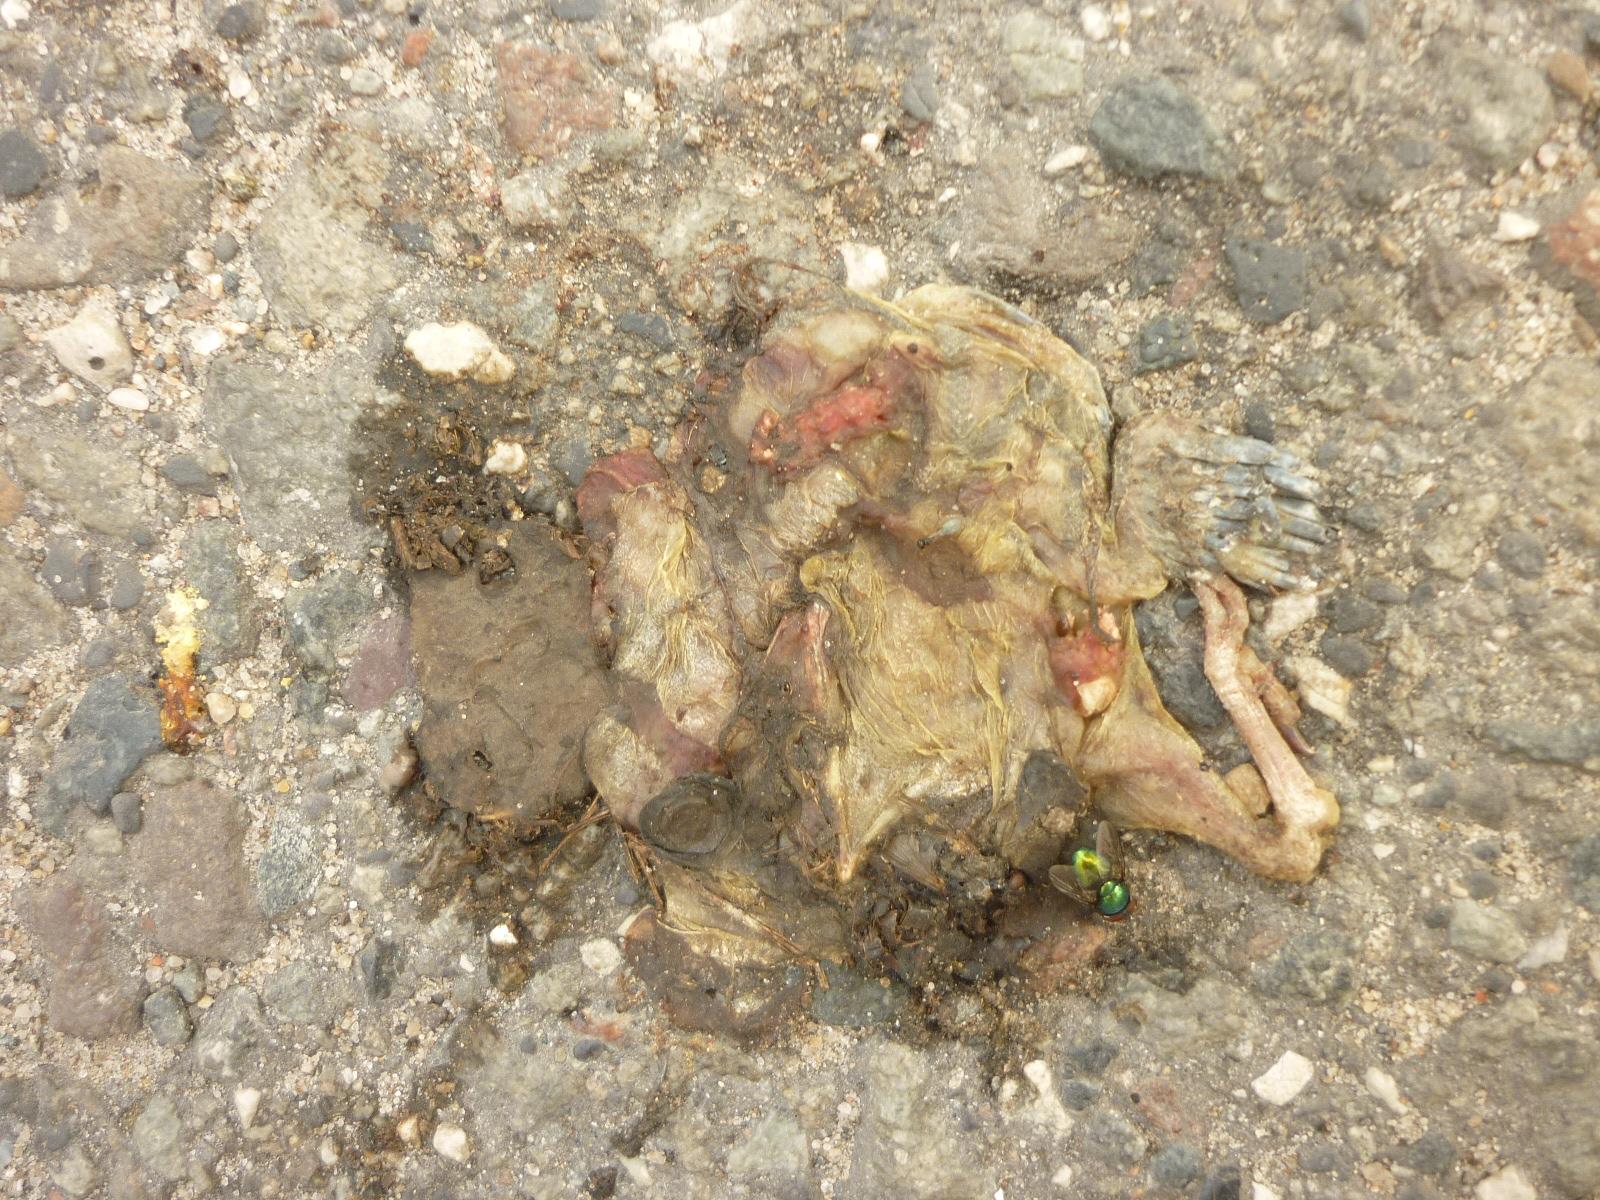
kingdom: Animalia
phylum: Chordata
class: Aves
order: Passeriformes
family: Paridae
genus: Cyanistes
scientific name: Cyanistes caeruleus
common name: Eurasian blue tit
